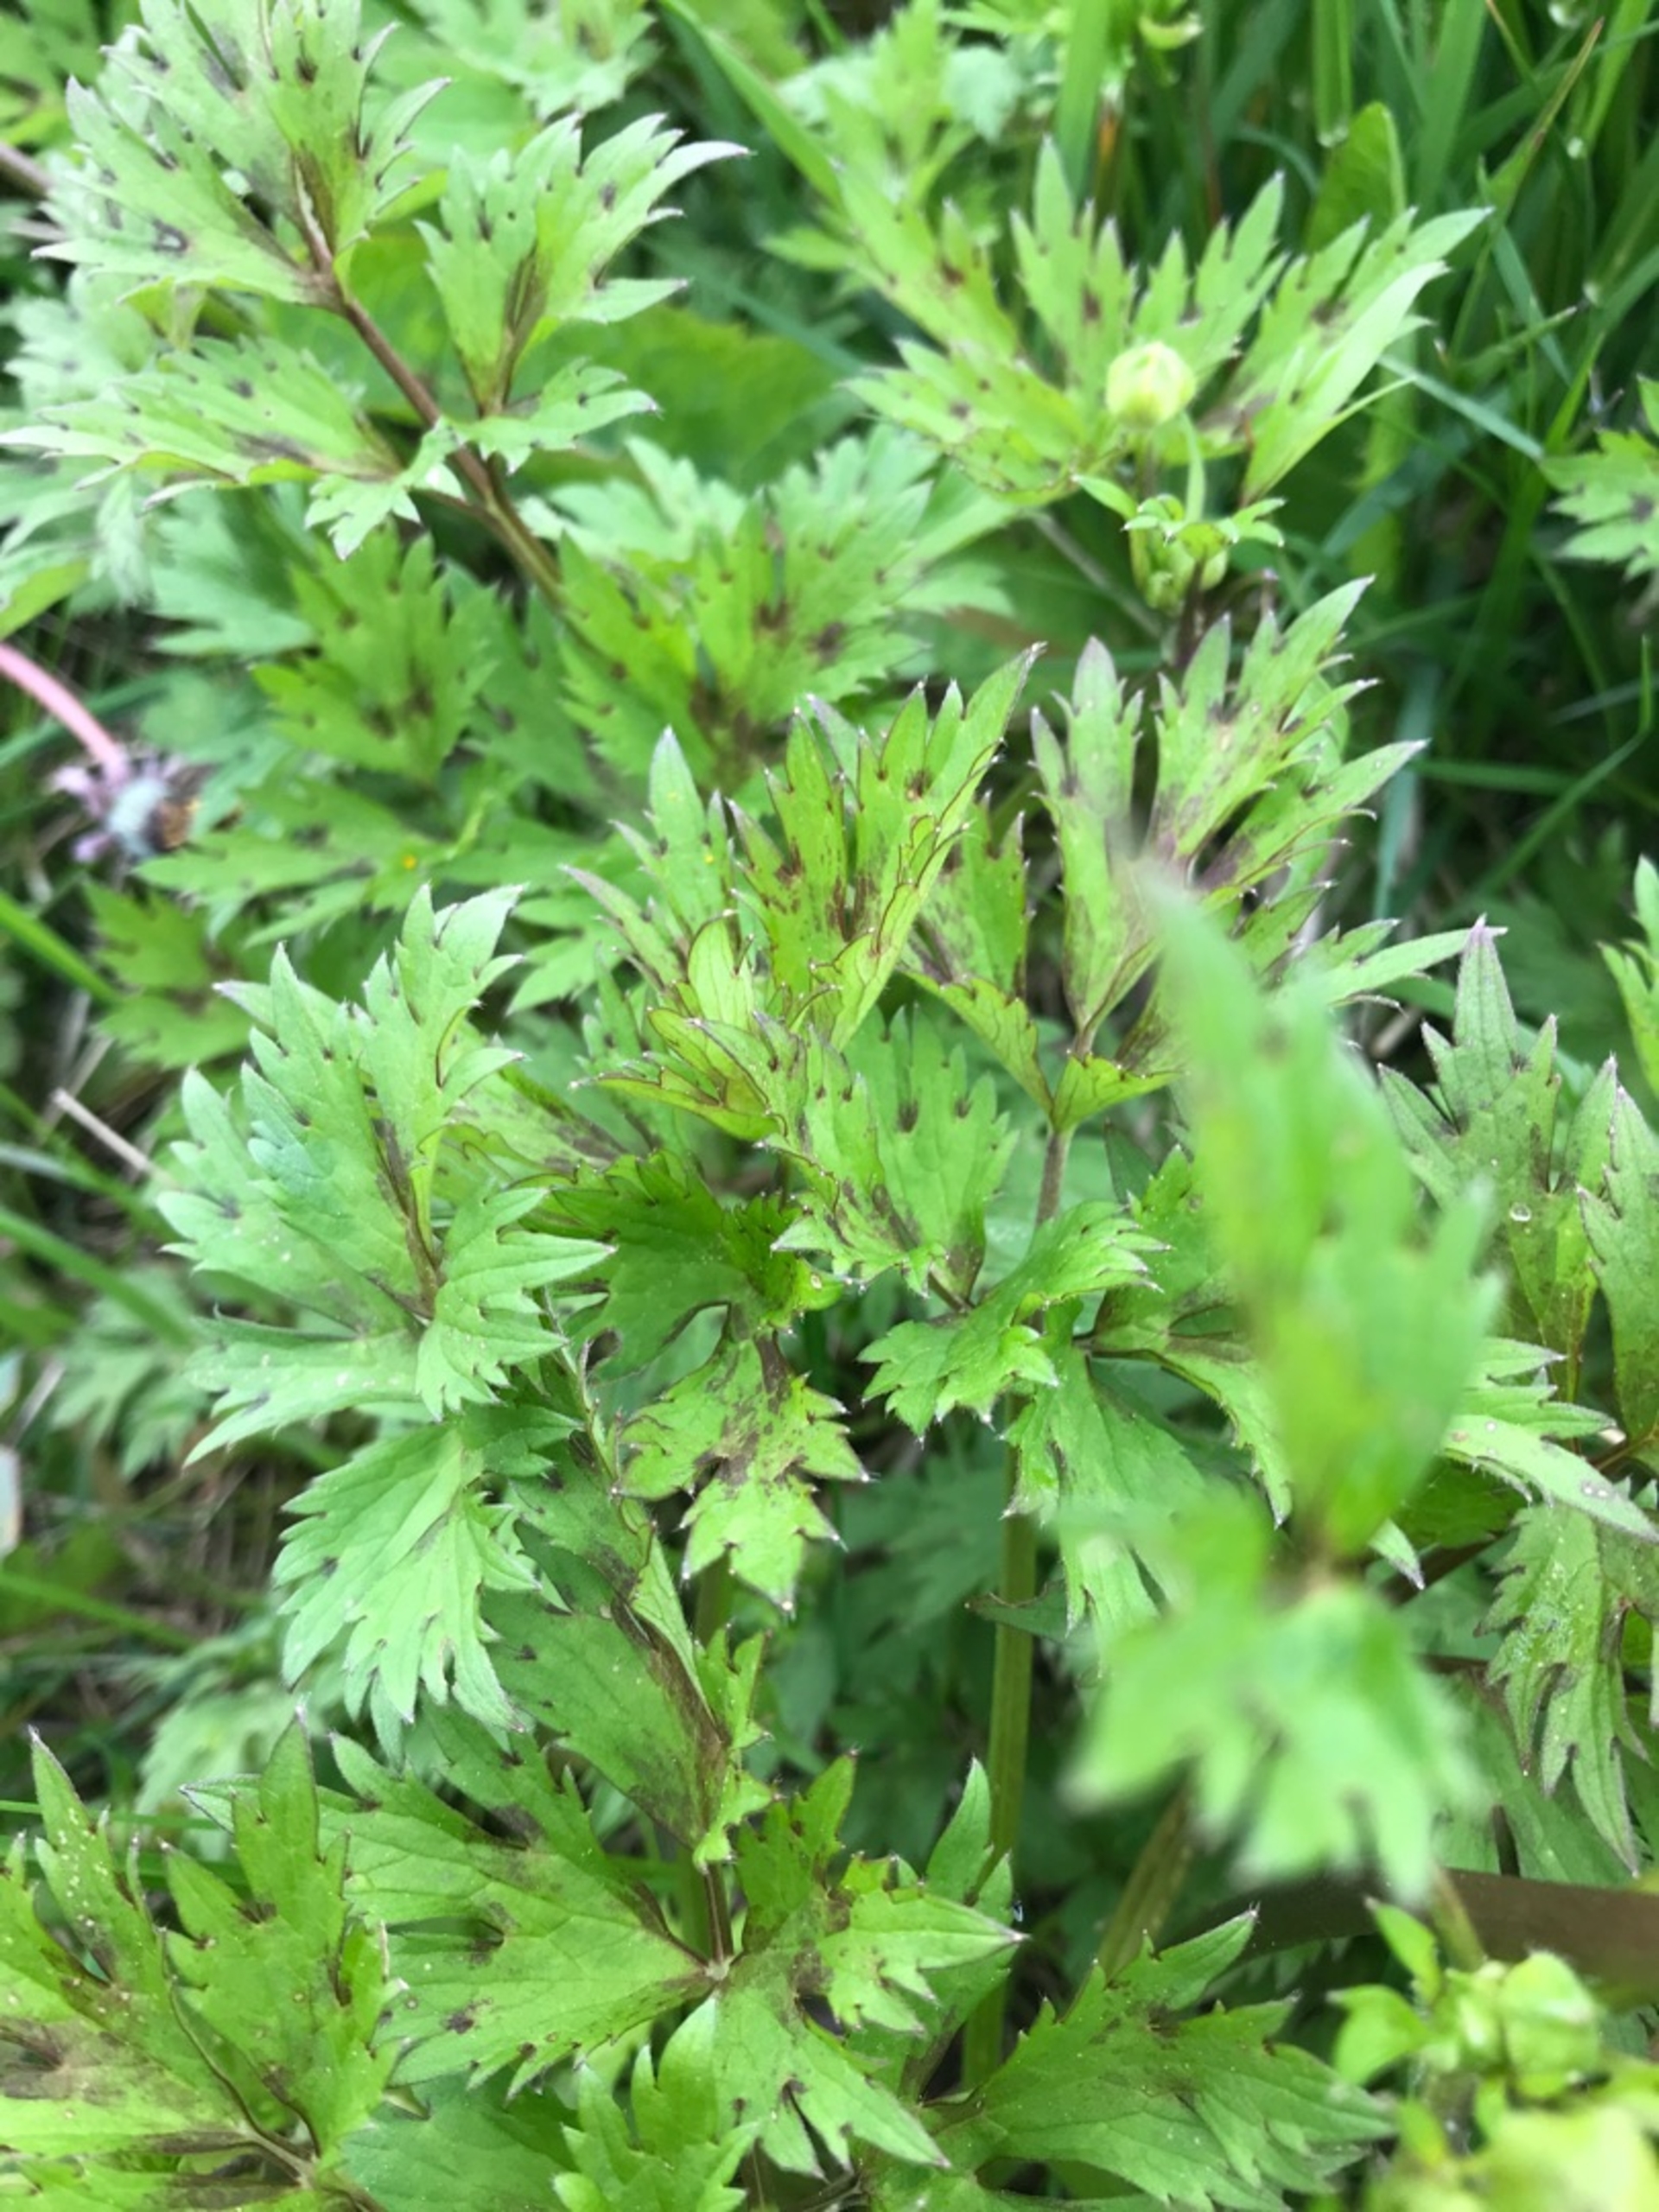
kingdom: Plantae
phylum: Tracheophyta
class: Magnoliopsida
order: Ranunculales
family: Ranunculaceae
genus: Ranunculus
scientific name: Ranunculus repens
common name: Lav ranunkel
